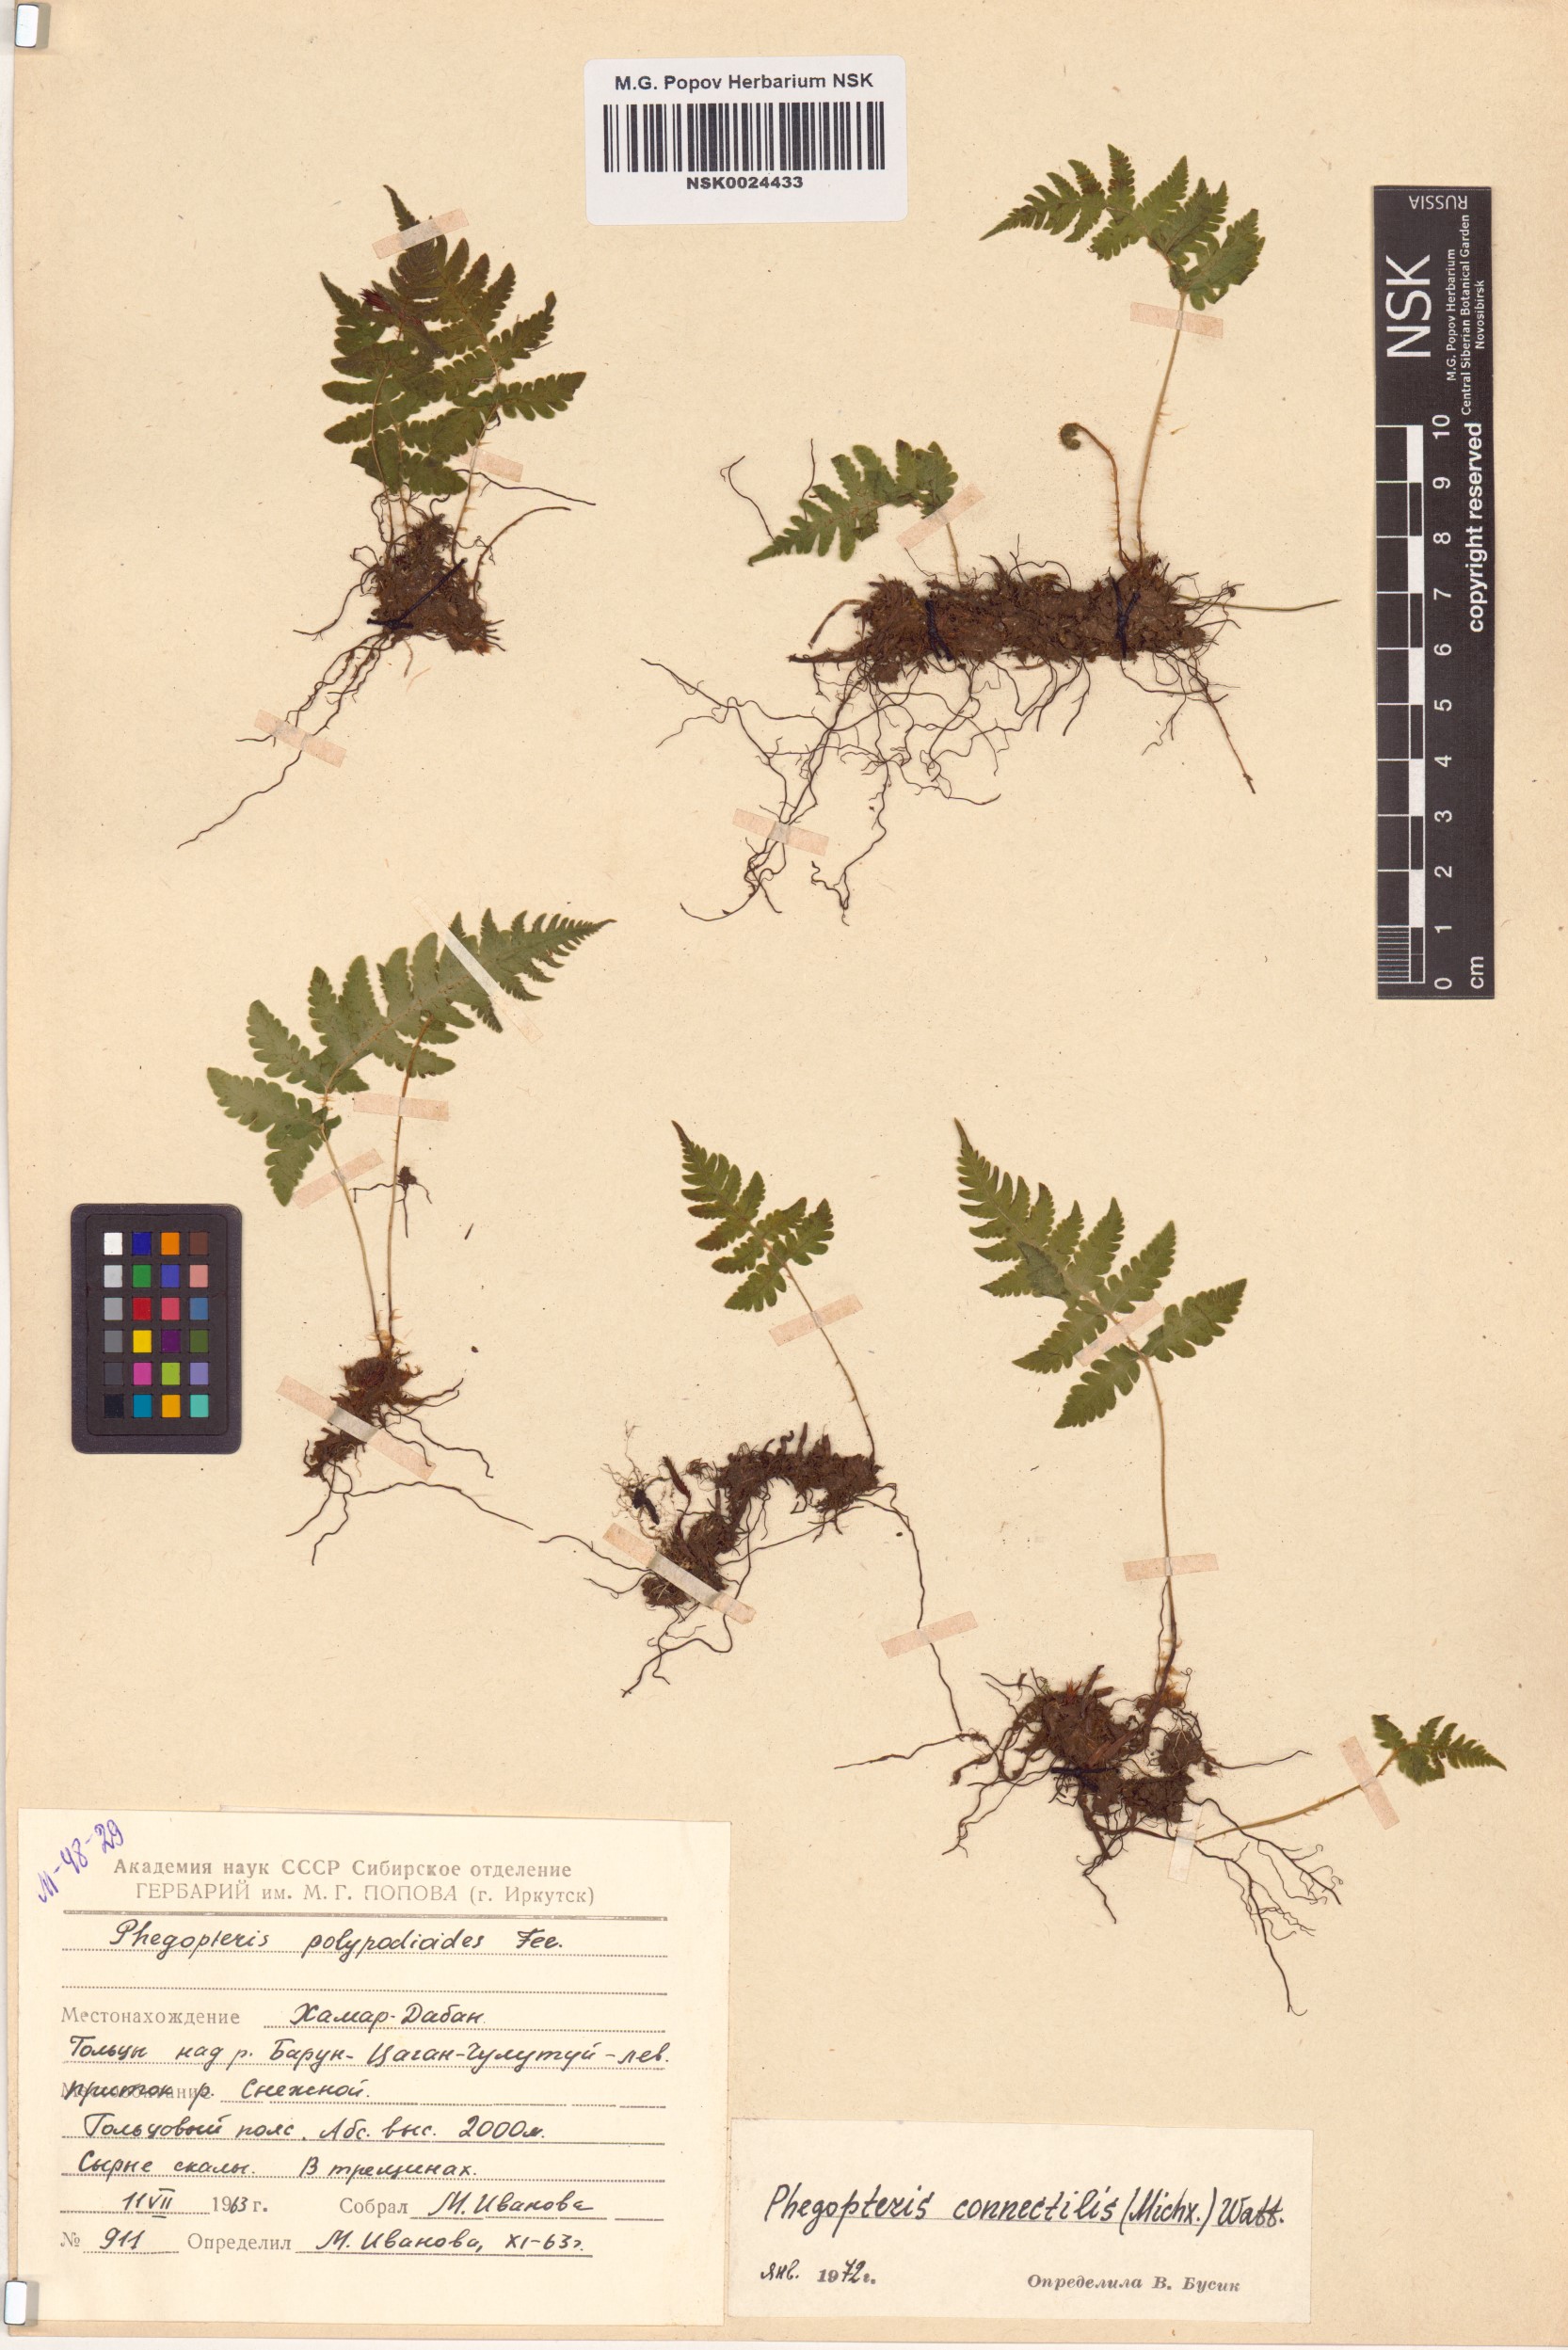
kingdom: Plantae
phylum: Tracheophyta
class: Polypodiopsida
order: Polypodiales
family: Thelypteridaceae
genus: Phegopteris
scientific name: Phegopteris connectilis
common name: Beech fern
